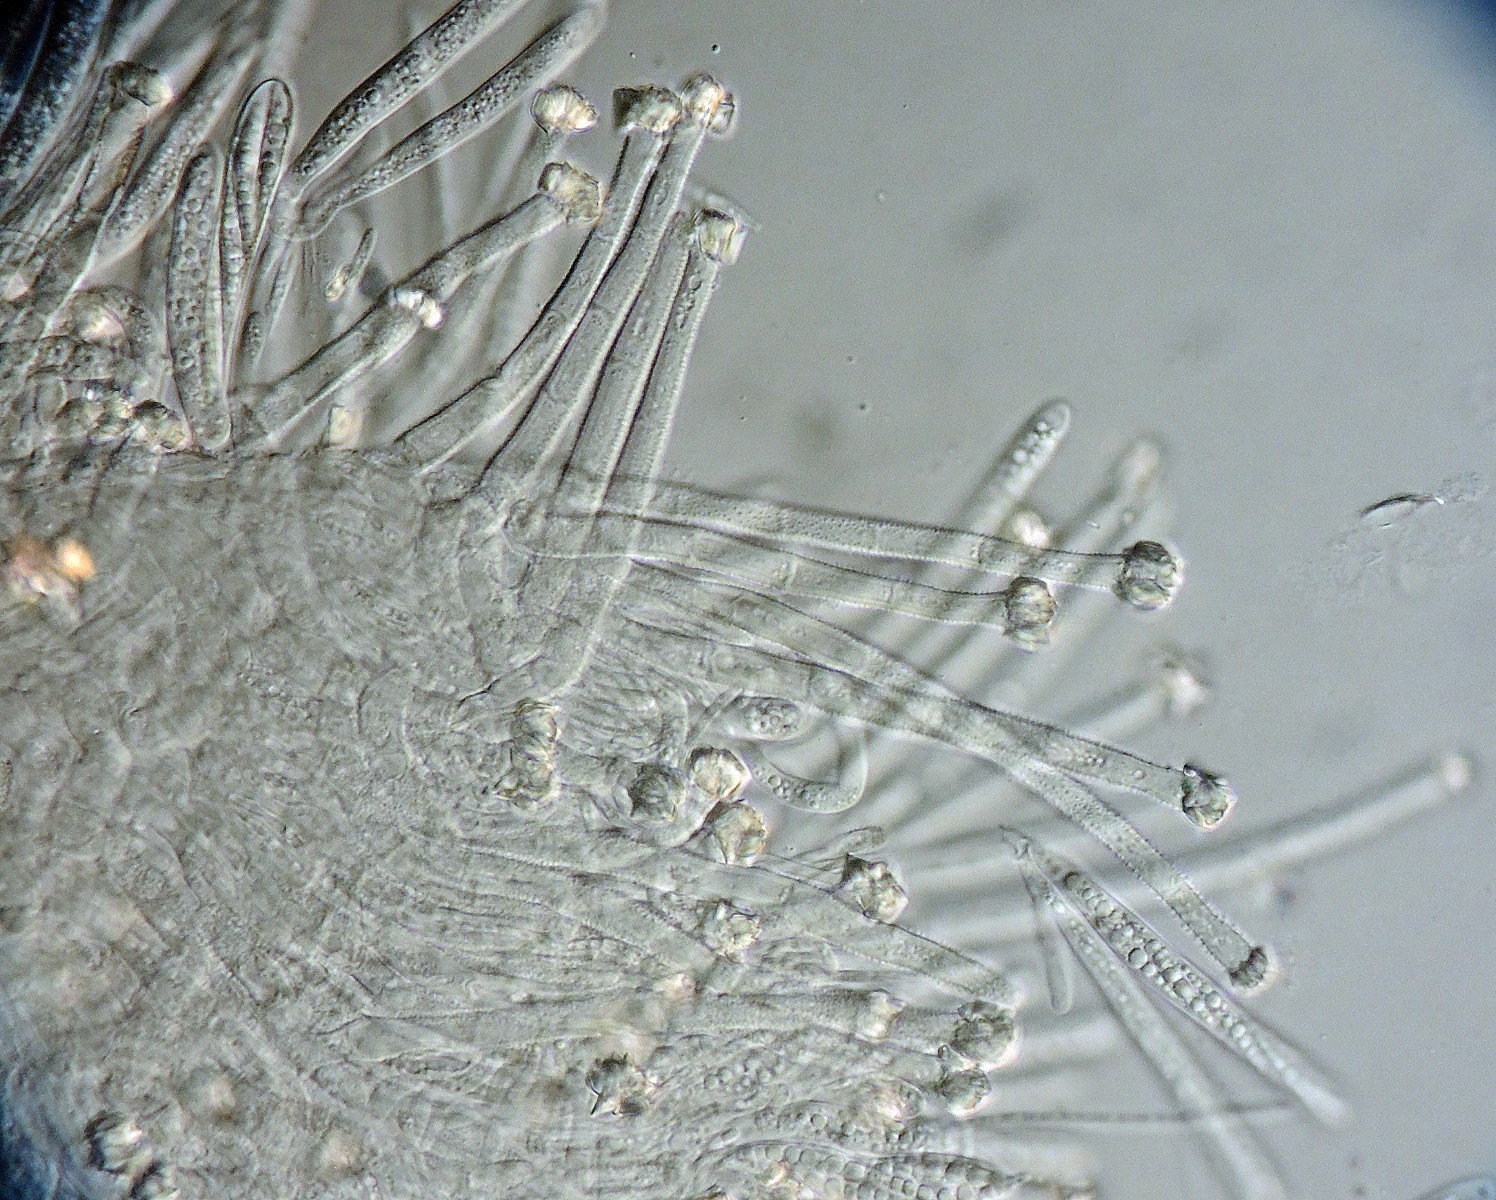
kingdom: Fungi
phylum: Ascomycota
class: Leotiomycetes
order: Helotiales
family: Lachnaceae
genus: Incrucipulum
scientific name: Incrucipulum ciliare
